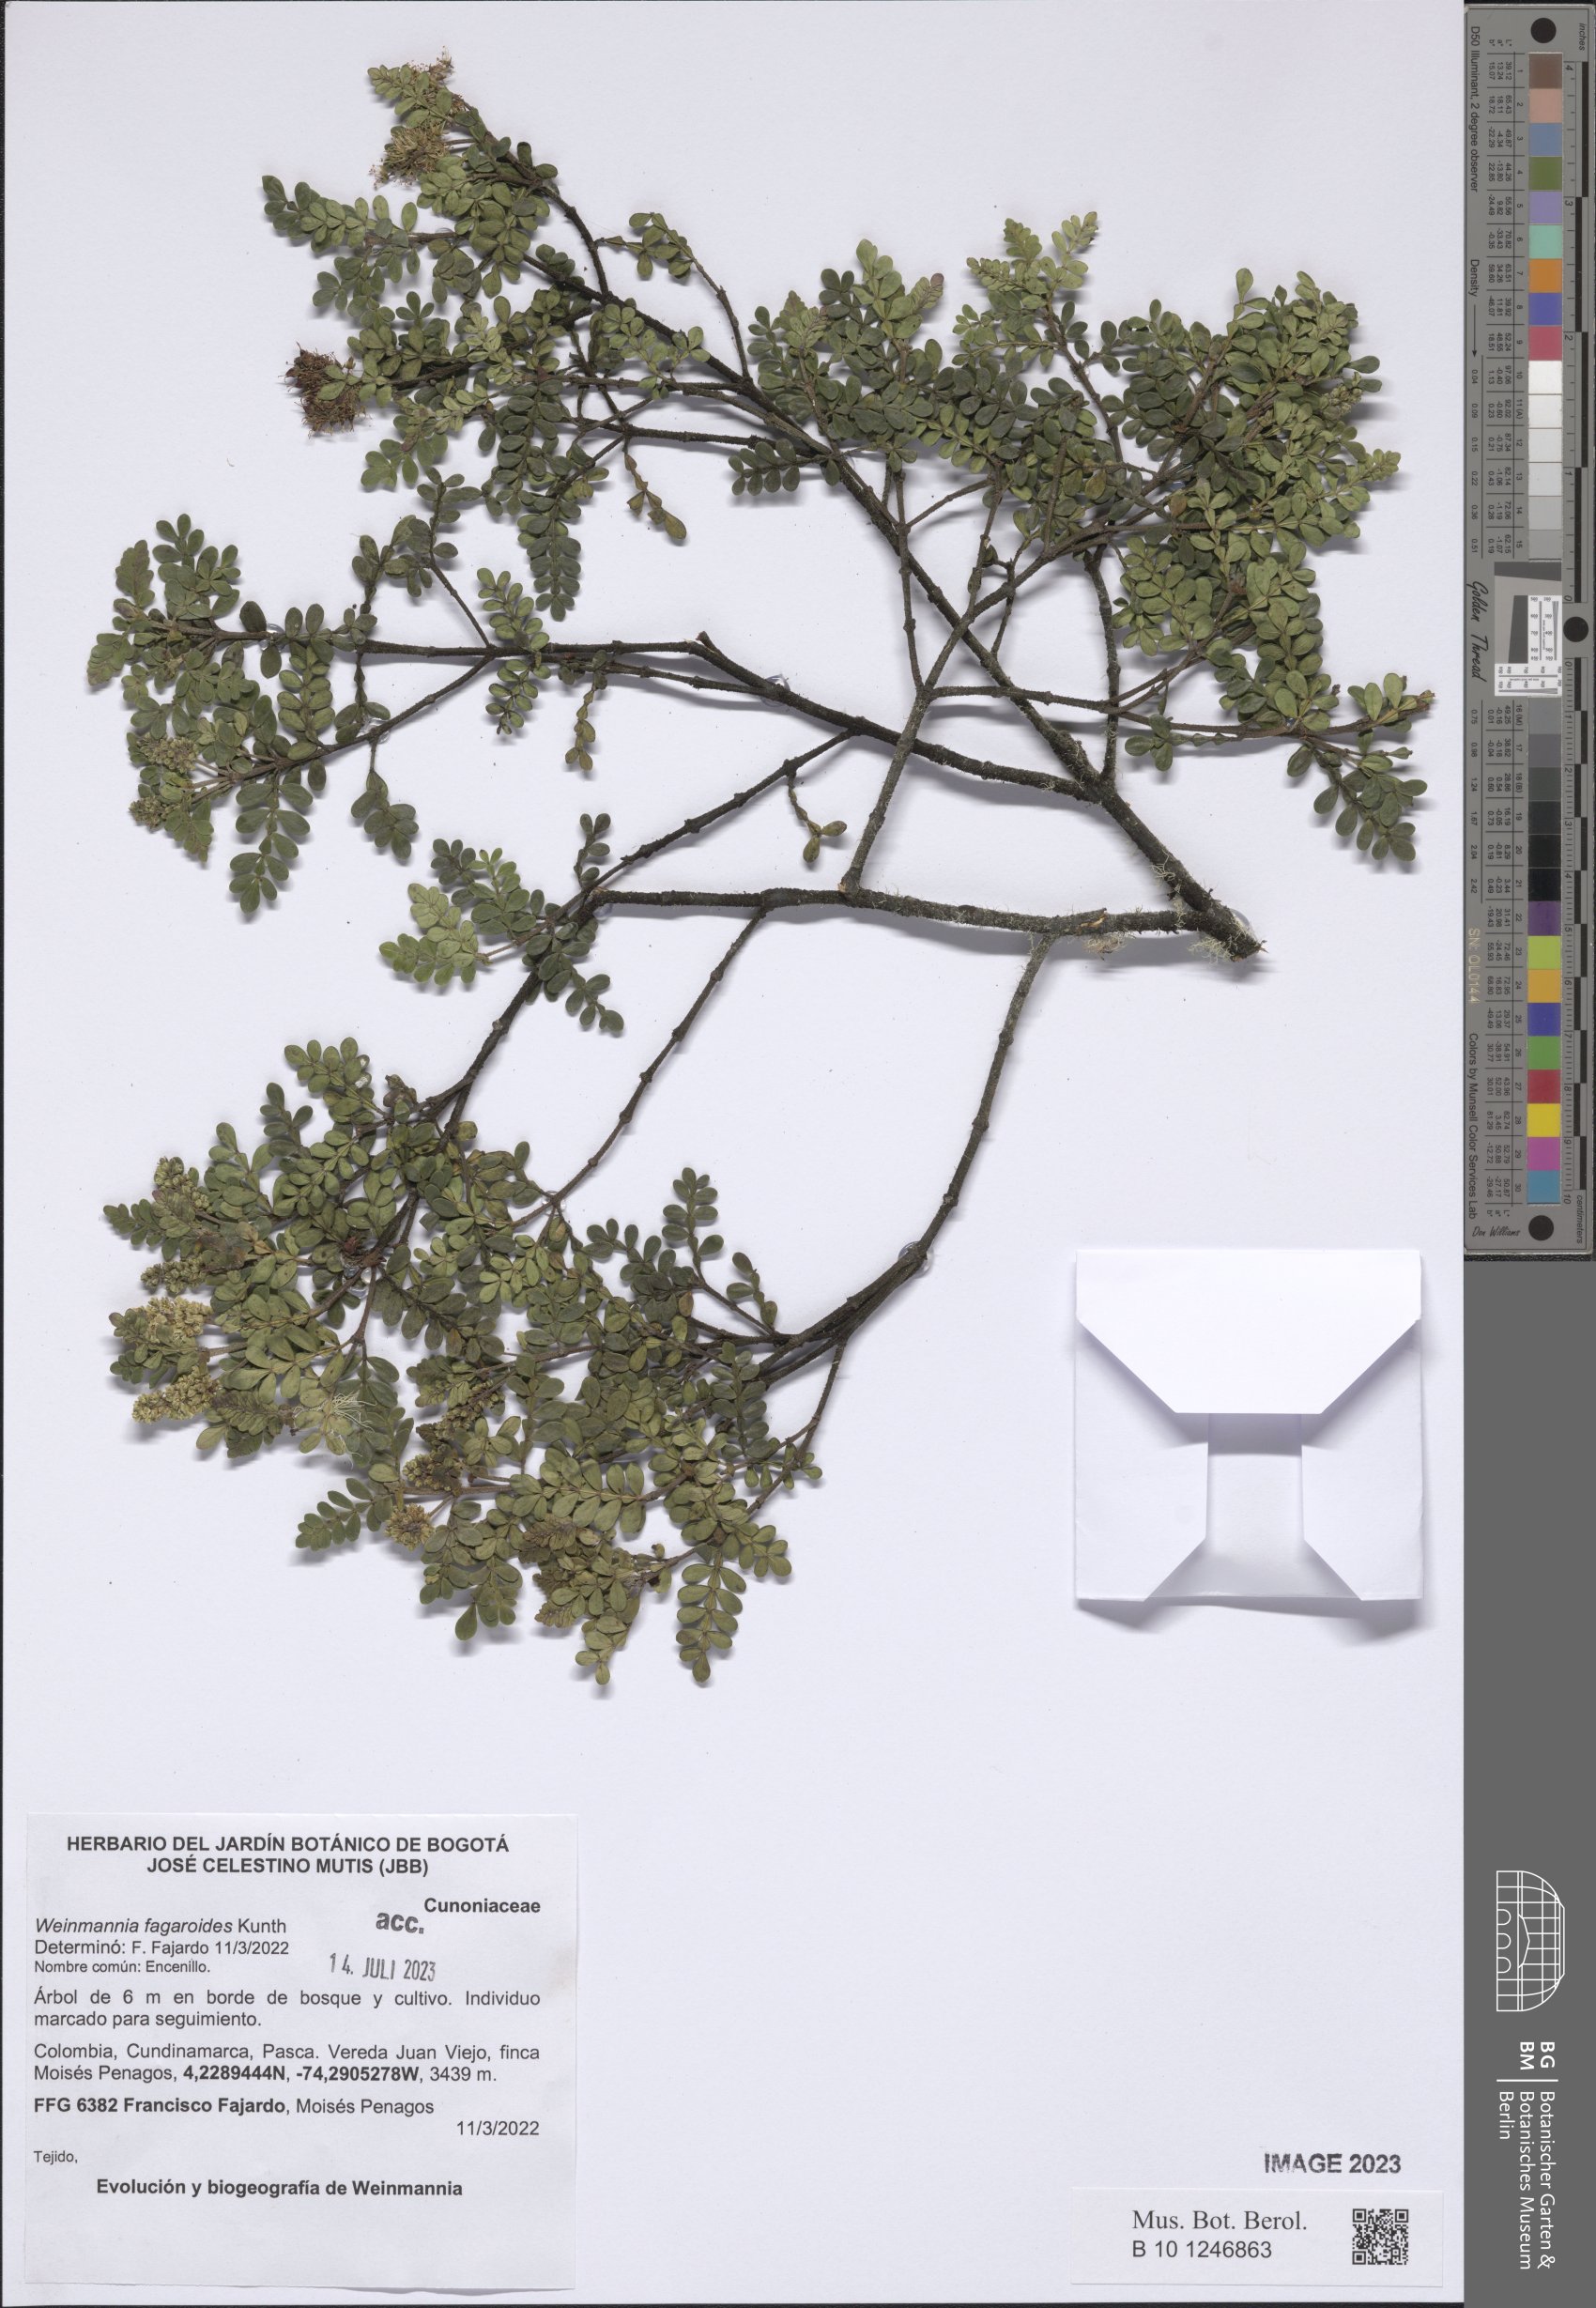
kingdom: Plantae
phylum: Tracheophyta
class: Magnoliopsida
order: Oxalidales
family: Cunoniaceae
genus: Weinmannia
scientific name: Weinmannia fagaroides
